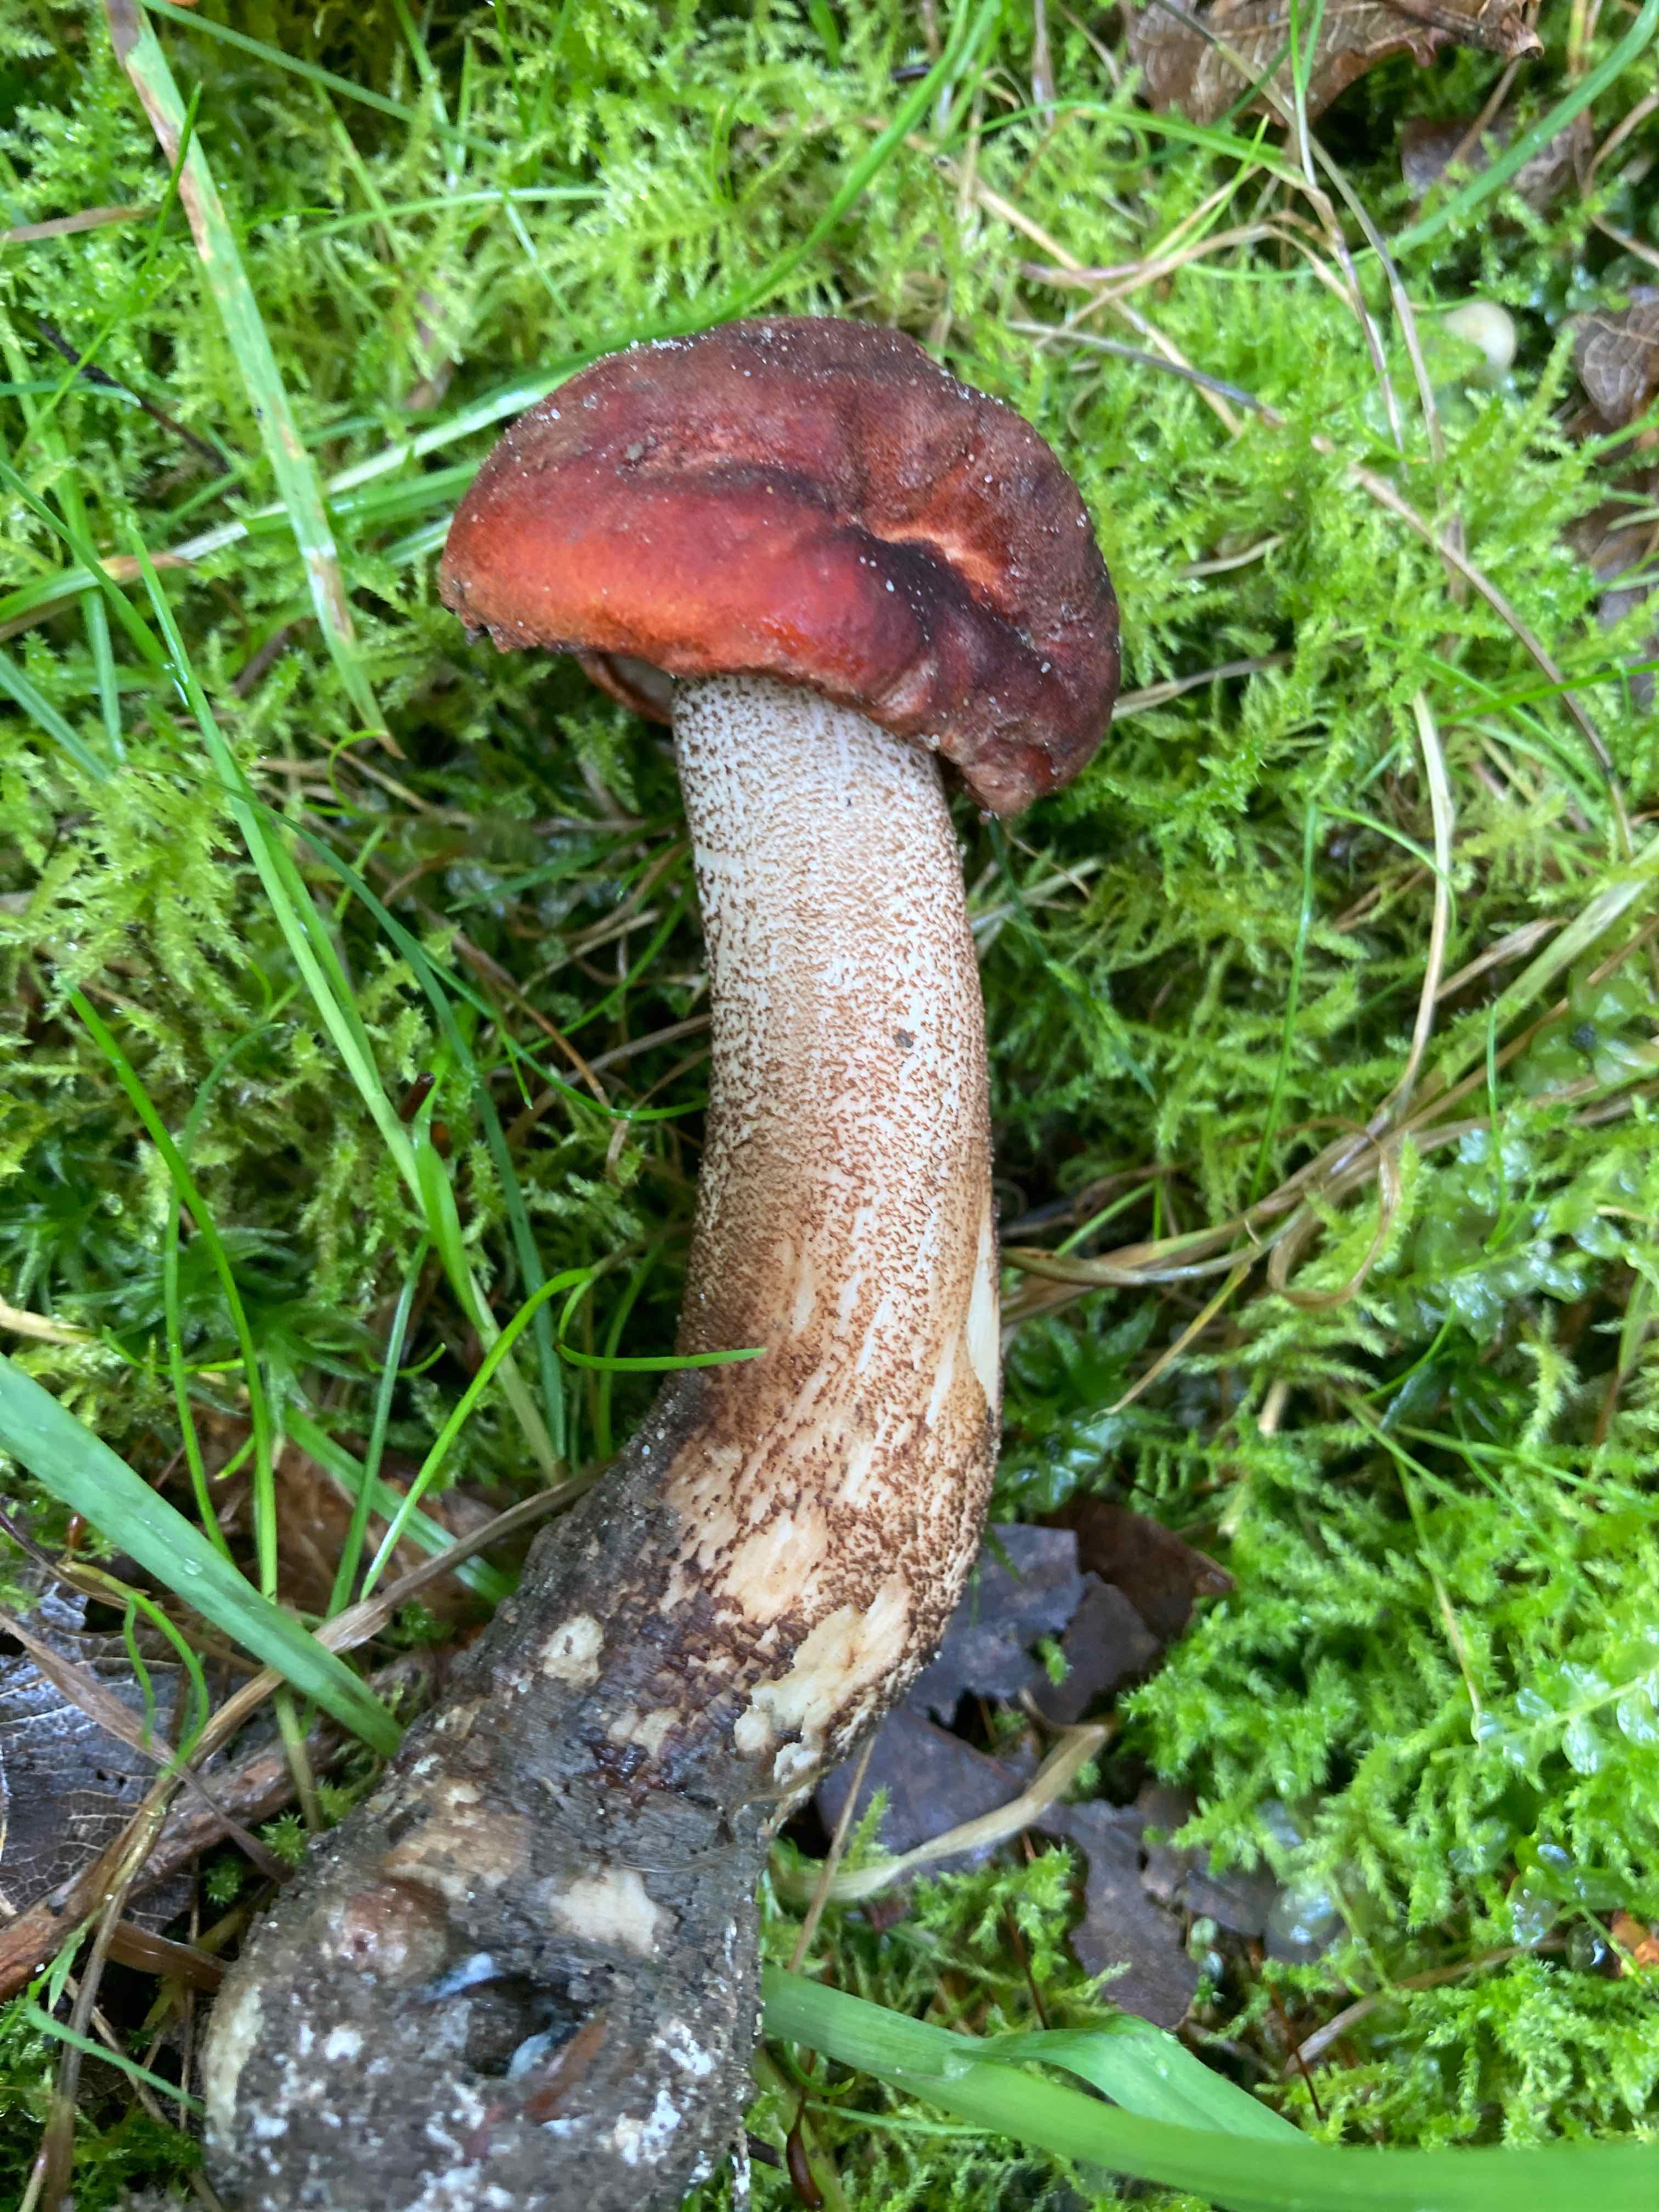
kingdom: Fungi
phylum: Basidiomycota
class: Agaricomycetes
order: Boletales
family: Boletaceae
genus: Leccinum
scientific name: Leccinum aurantiacum
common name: rustrød skælrørhat
